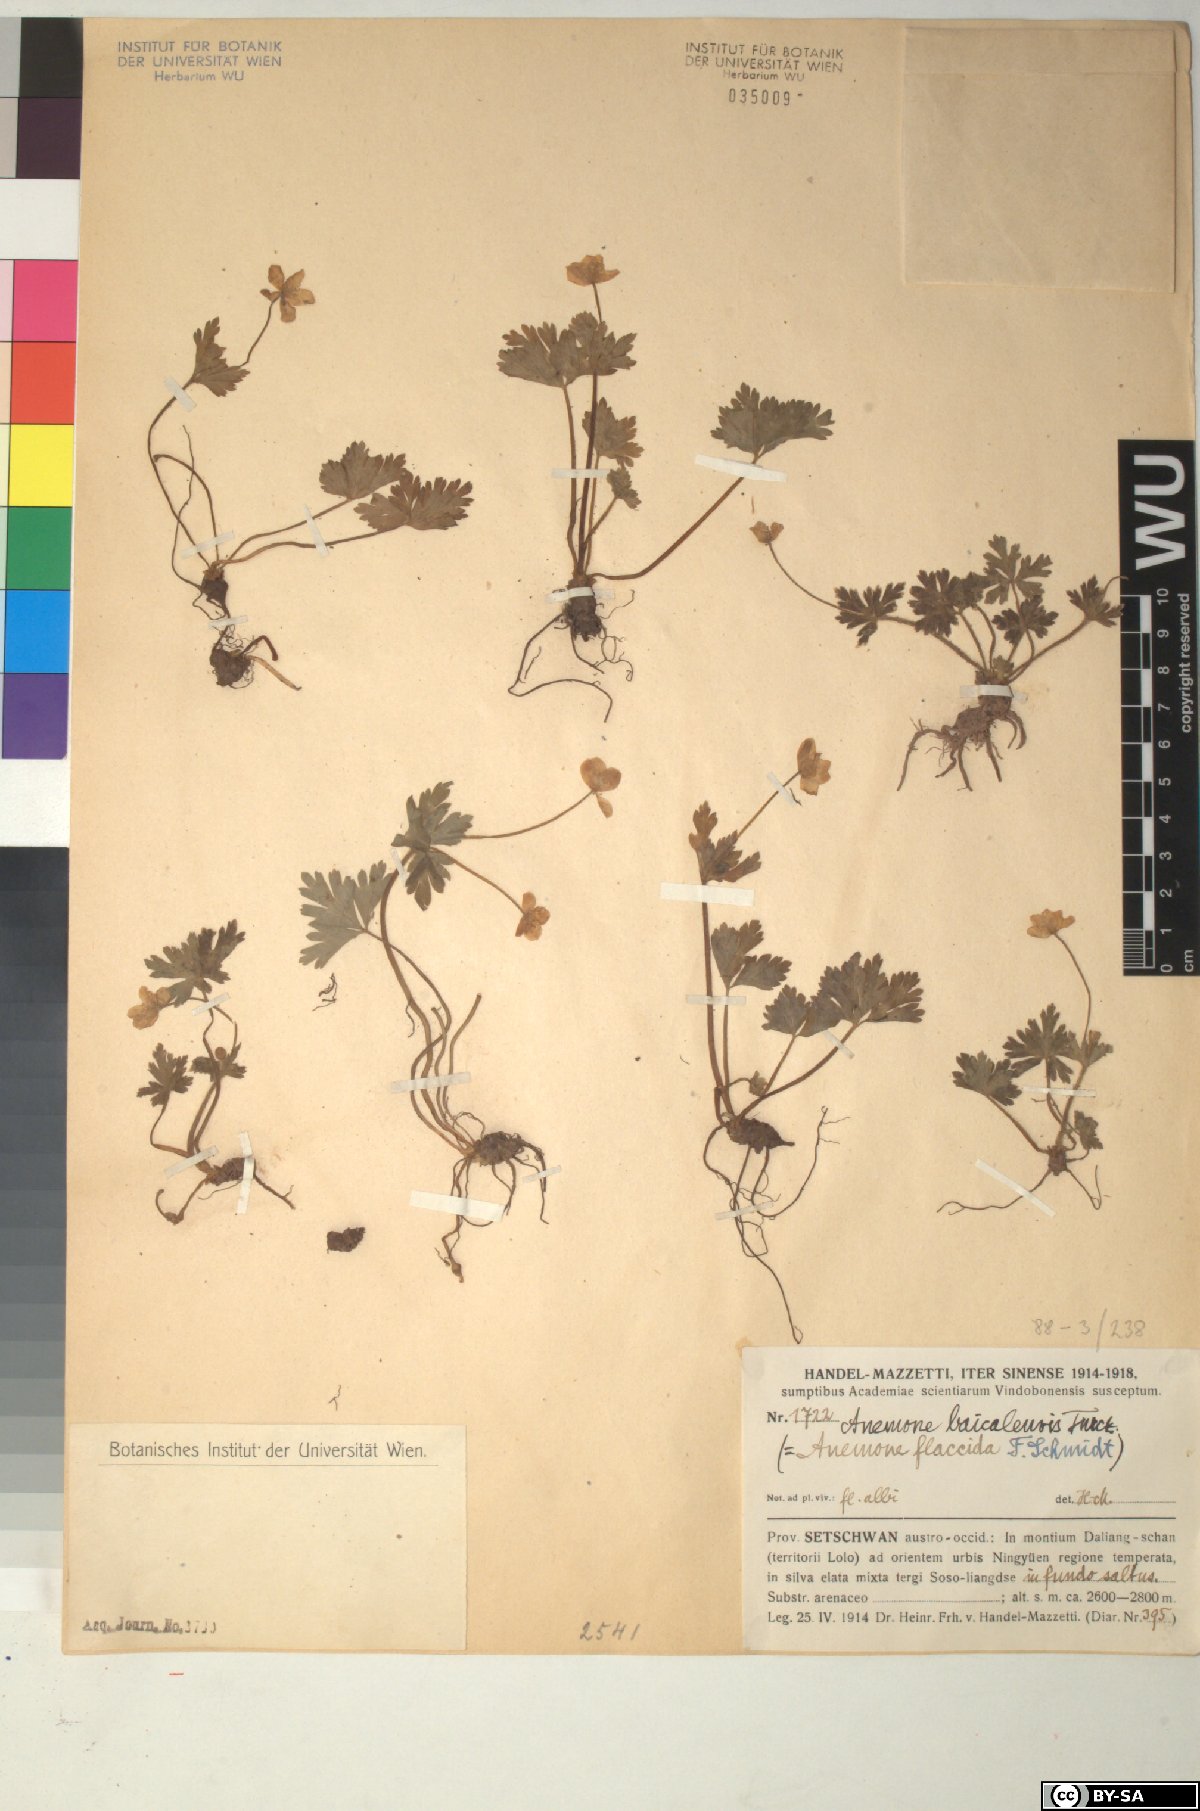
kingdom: Plantae
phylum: Tracheophyta
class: Magnoliopsida
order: Ranunculales
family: Ranunculaceae
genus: Anemonastrum
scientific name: Anemonastrum baicalense
